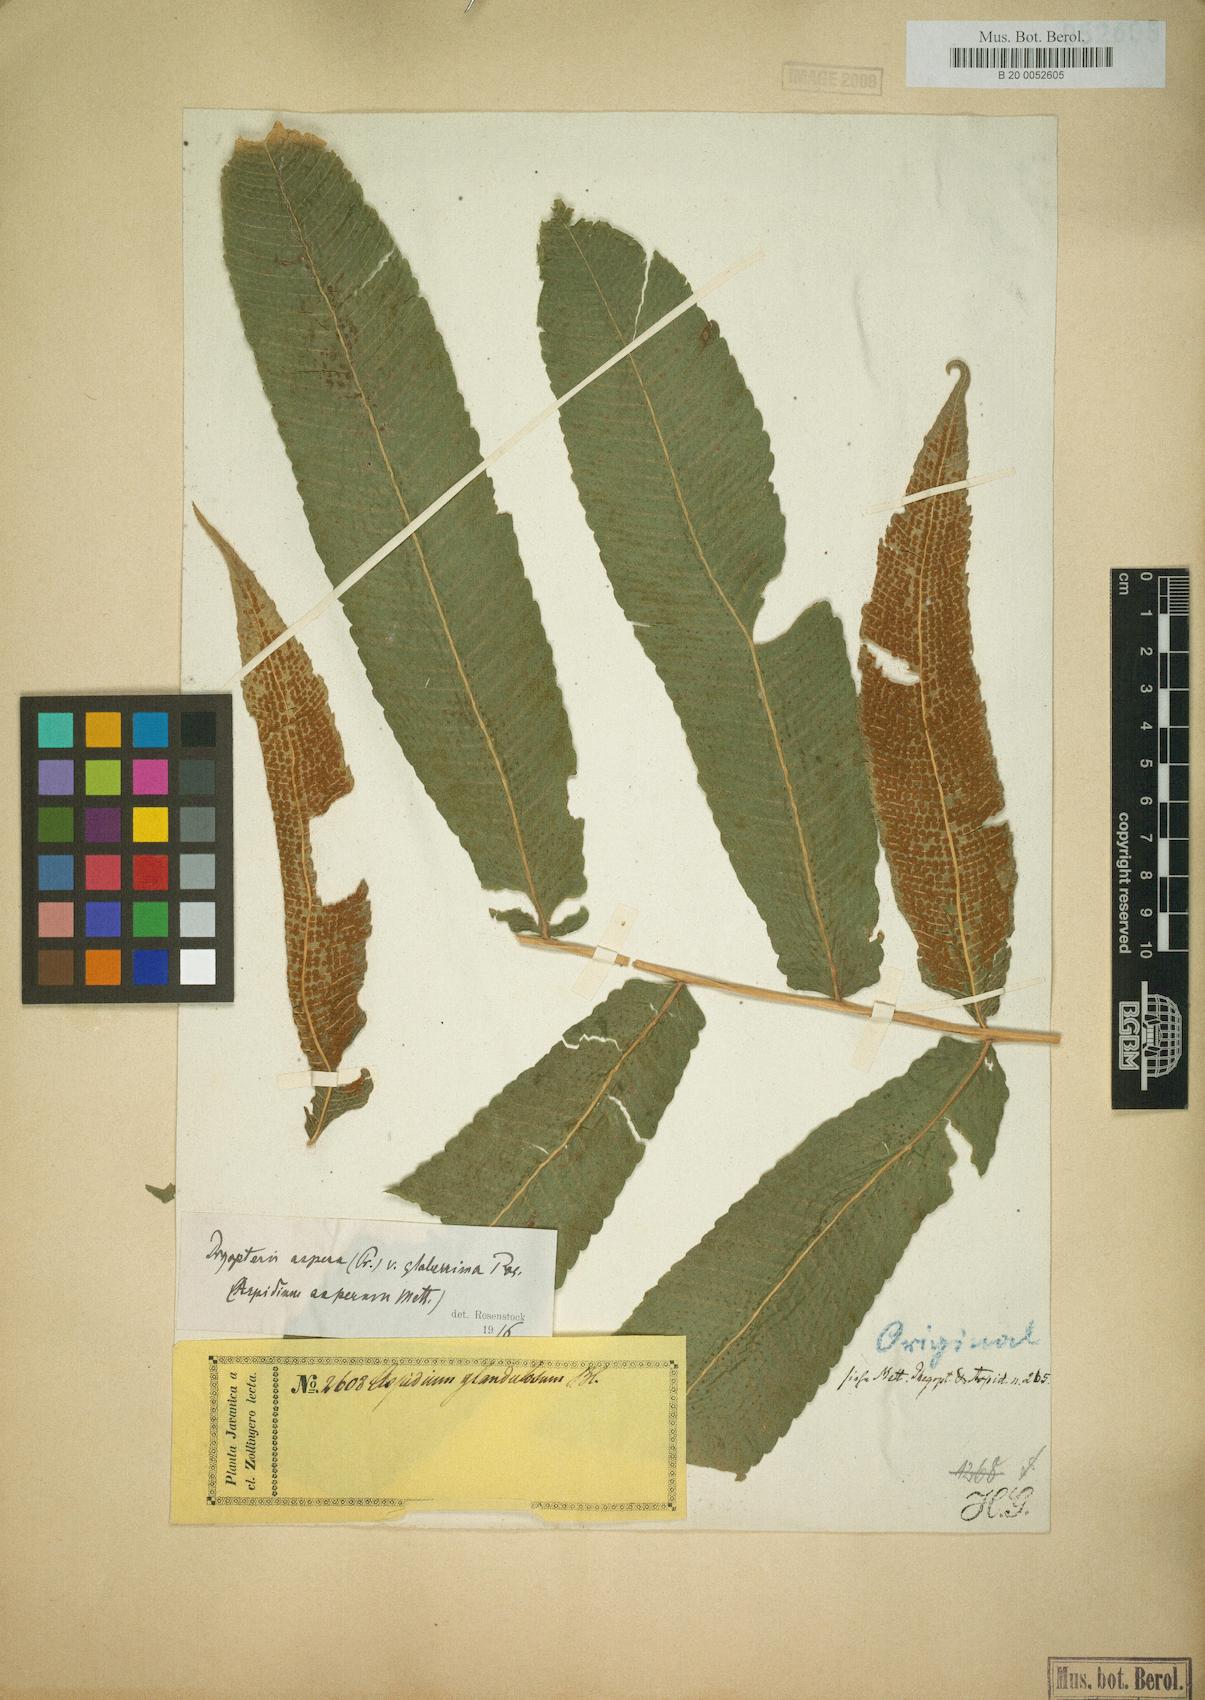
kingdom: Plantae
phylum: Tracheophyta
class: Polypodiopsida
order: Polypodiales
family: Dryopteridaceae
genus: Dryopteris
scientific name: Dryopteris
